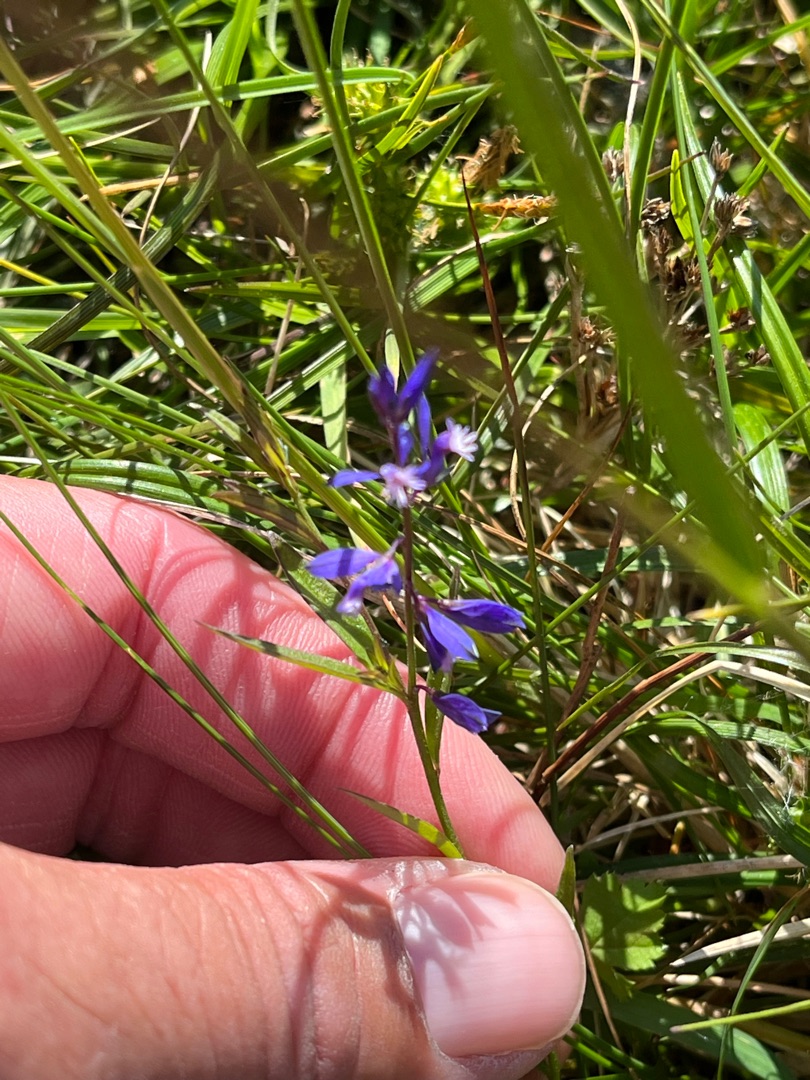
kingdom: Plantae
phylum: Tracheophyta
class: Magnoliopsida
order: Fabales
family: Polygalaceae
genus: Polygala
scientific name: Polygala serpyllifolia
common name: Spæd mælkeurt
